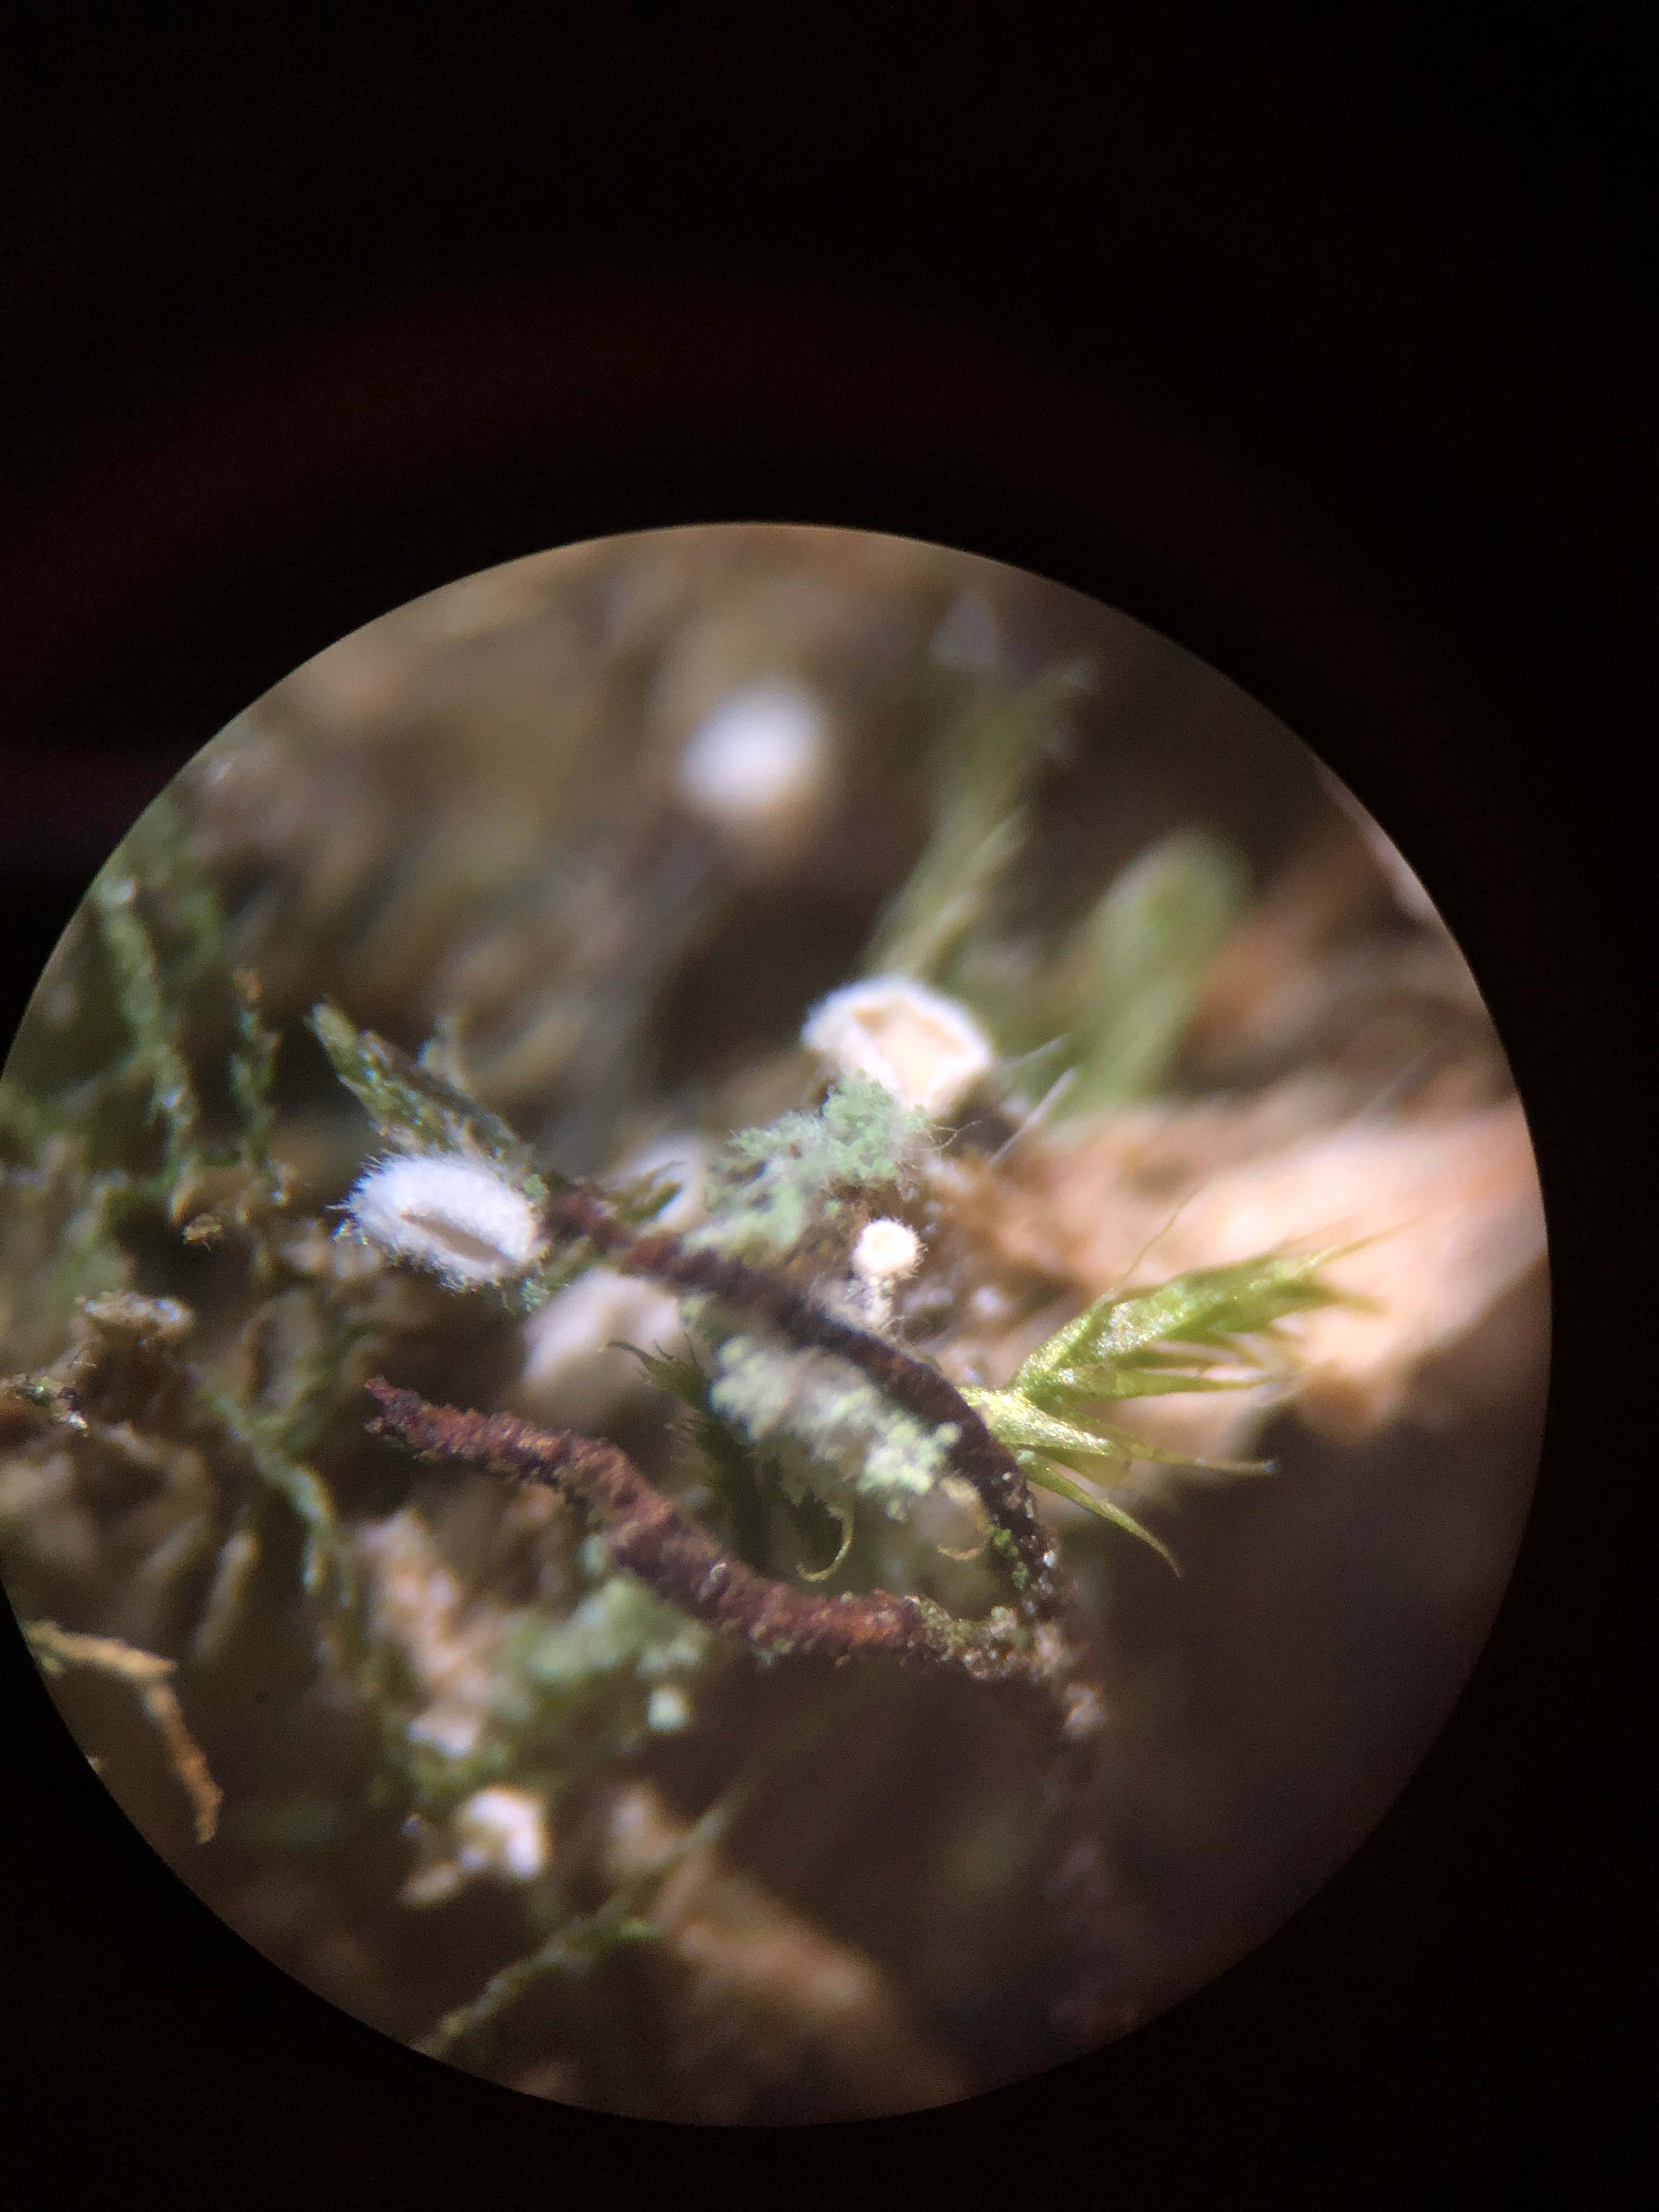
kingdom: Fungi
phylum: Basidiomycota
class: Agaricomycetes
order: Agaricales
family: Chromocyphellaceae
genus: Chromocyphella
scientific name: Chromocyphella muscicola
